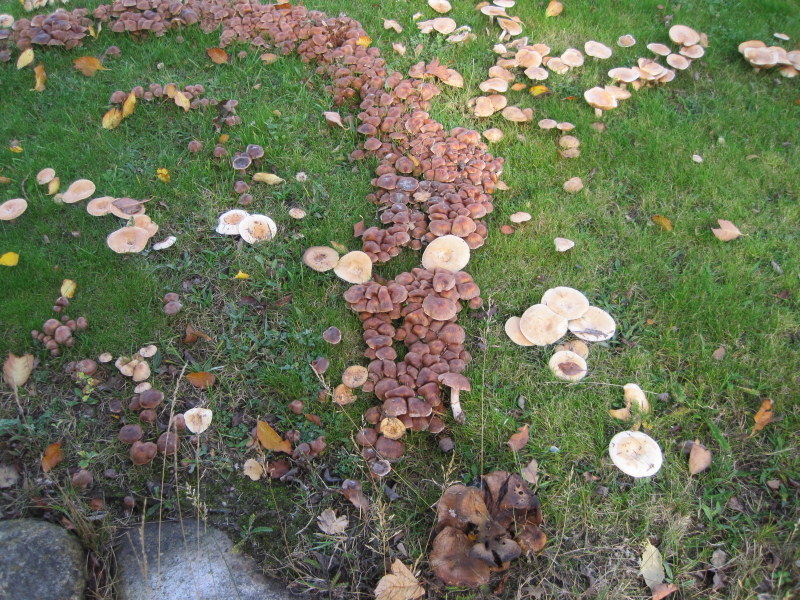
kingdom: Fungi
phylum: Basidiomycota
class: Agaricomycetes
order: Agaricales
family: Cortinariaceae
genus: Cortinarius
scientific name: Cortinarius saturninus
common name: brunviolet slørhat
